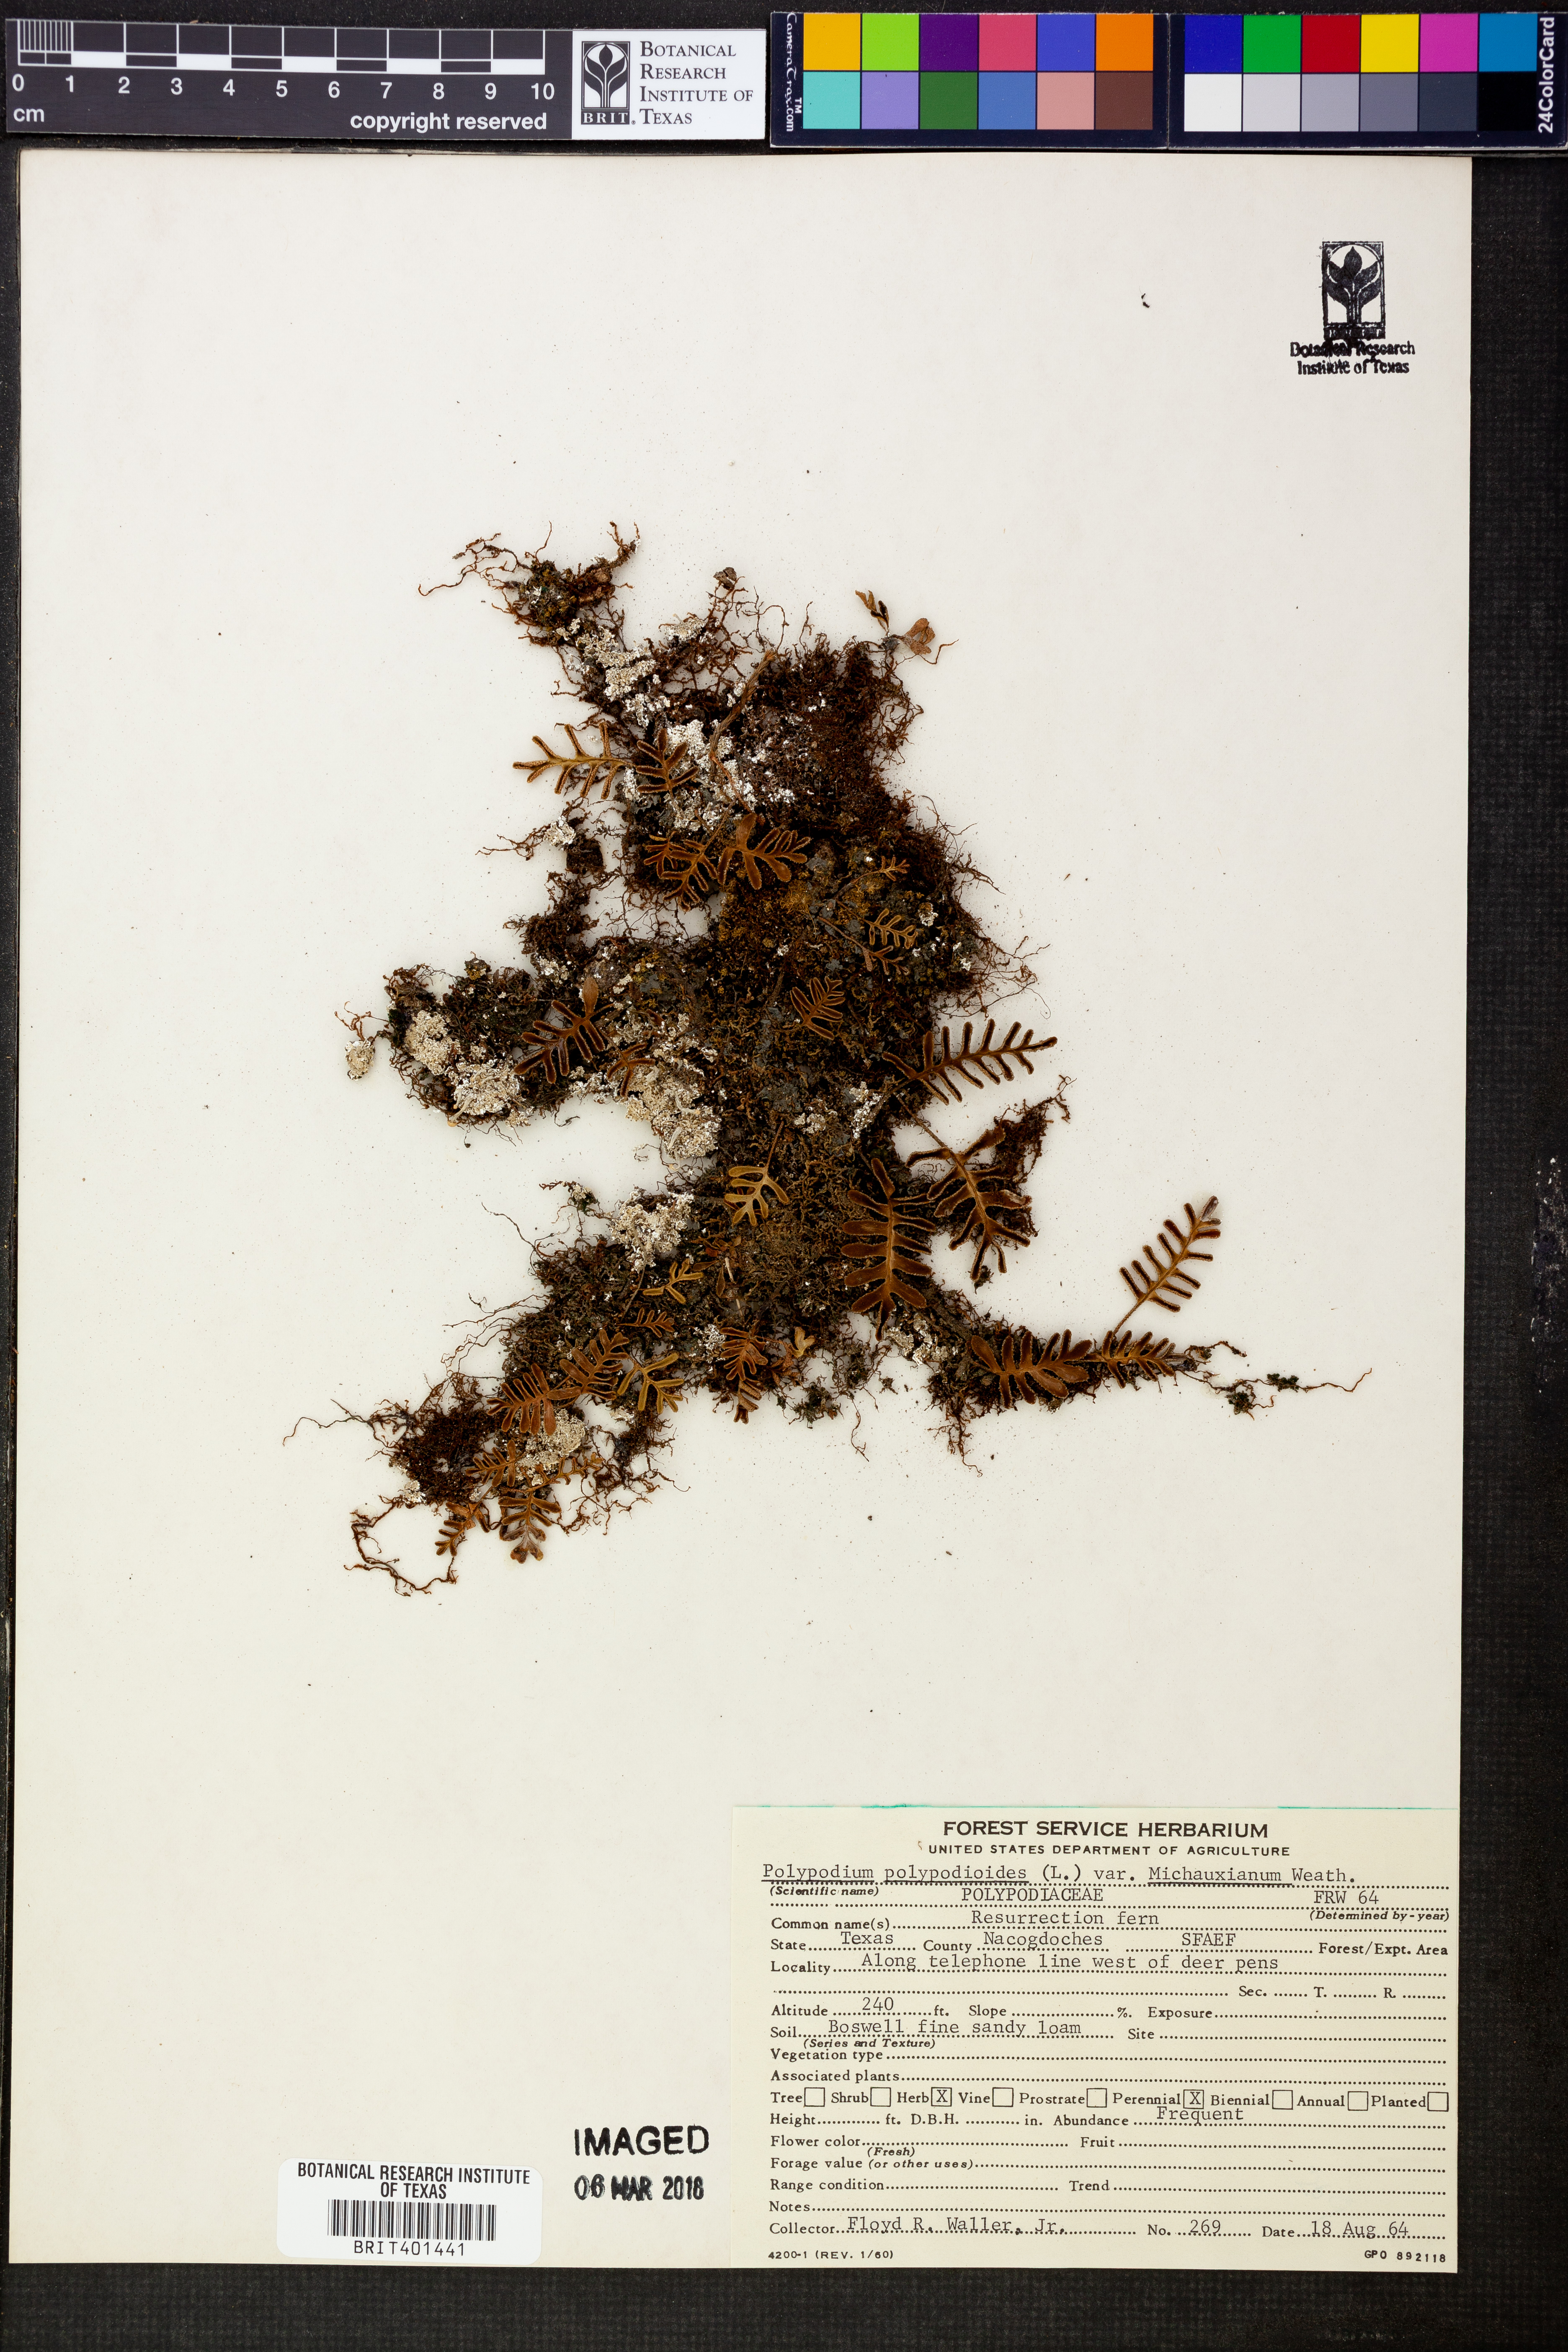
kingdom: Plantae
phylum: Tracheophyta
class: Polypodiopsida
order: Polypodiales
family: Polypodiaceae
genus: Pleopeltis
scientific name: Pleopeltis michauxiana
